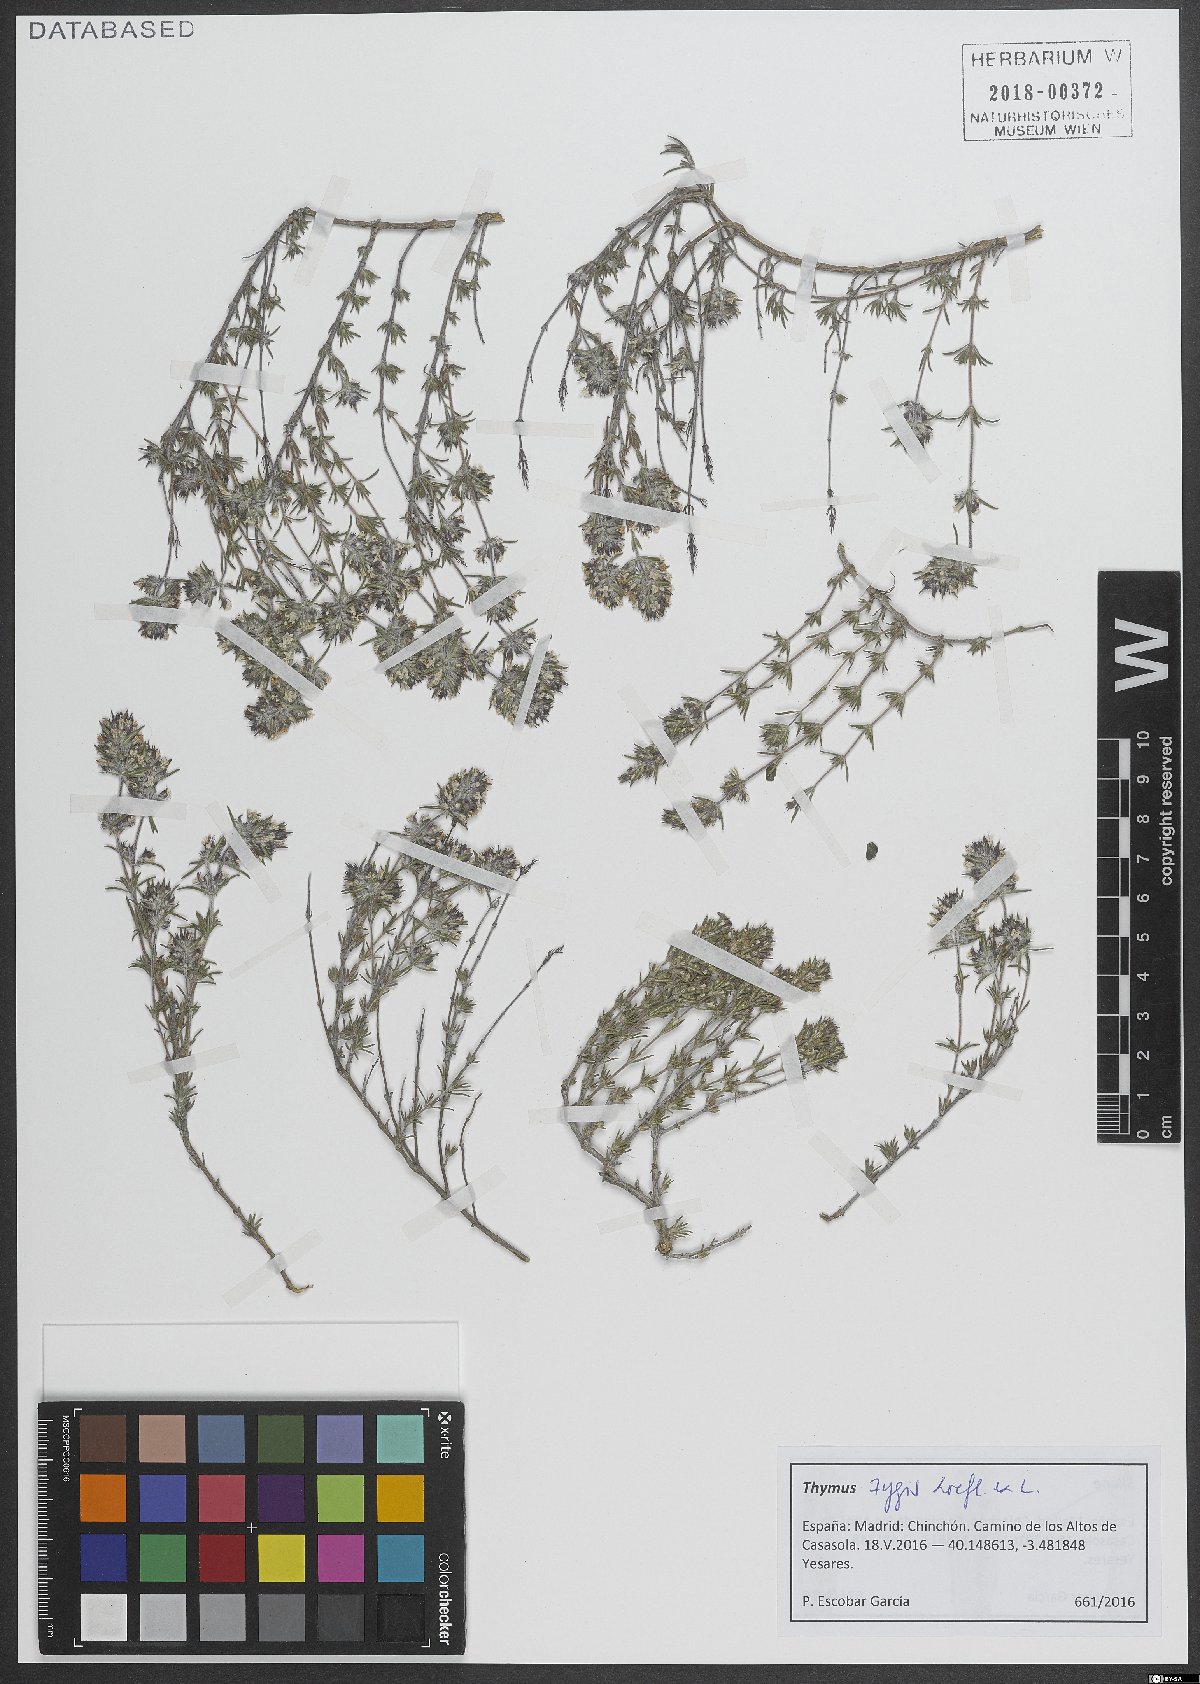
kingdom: Plantae
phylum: Tracheophyta
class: Magnoliopsida
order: Lamiales
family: Lamiaceae
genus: Thymus
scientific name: Thymus zygis
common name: White thyme
